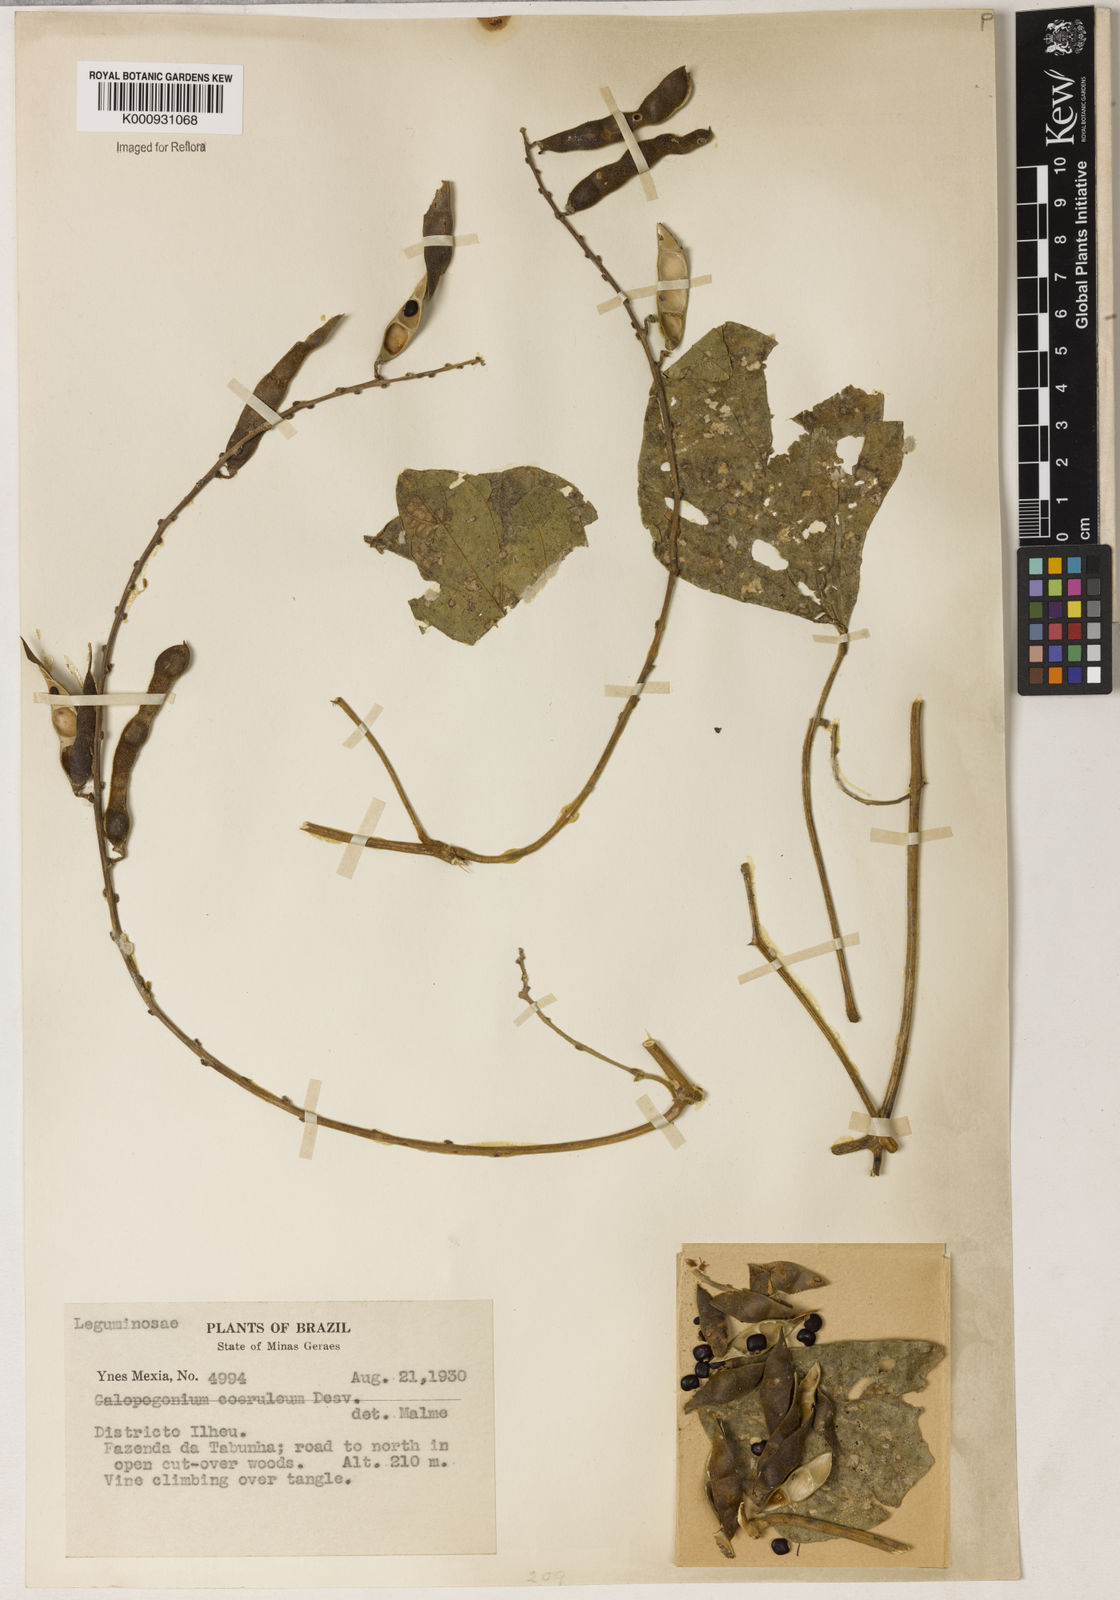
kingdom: Plantae
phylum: Tracheophyta
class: Magnoliopsida
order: Fabales
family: Fabaceae
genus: Calopogonium
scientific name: Calopogonium caeruleum
